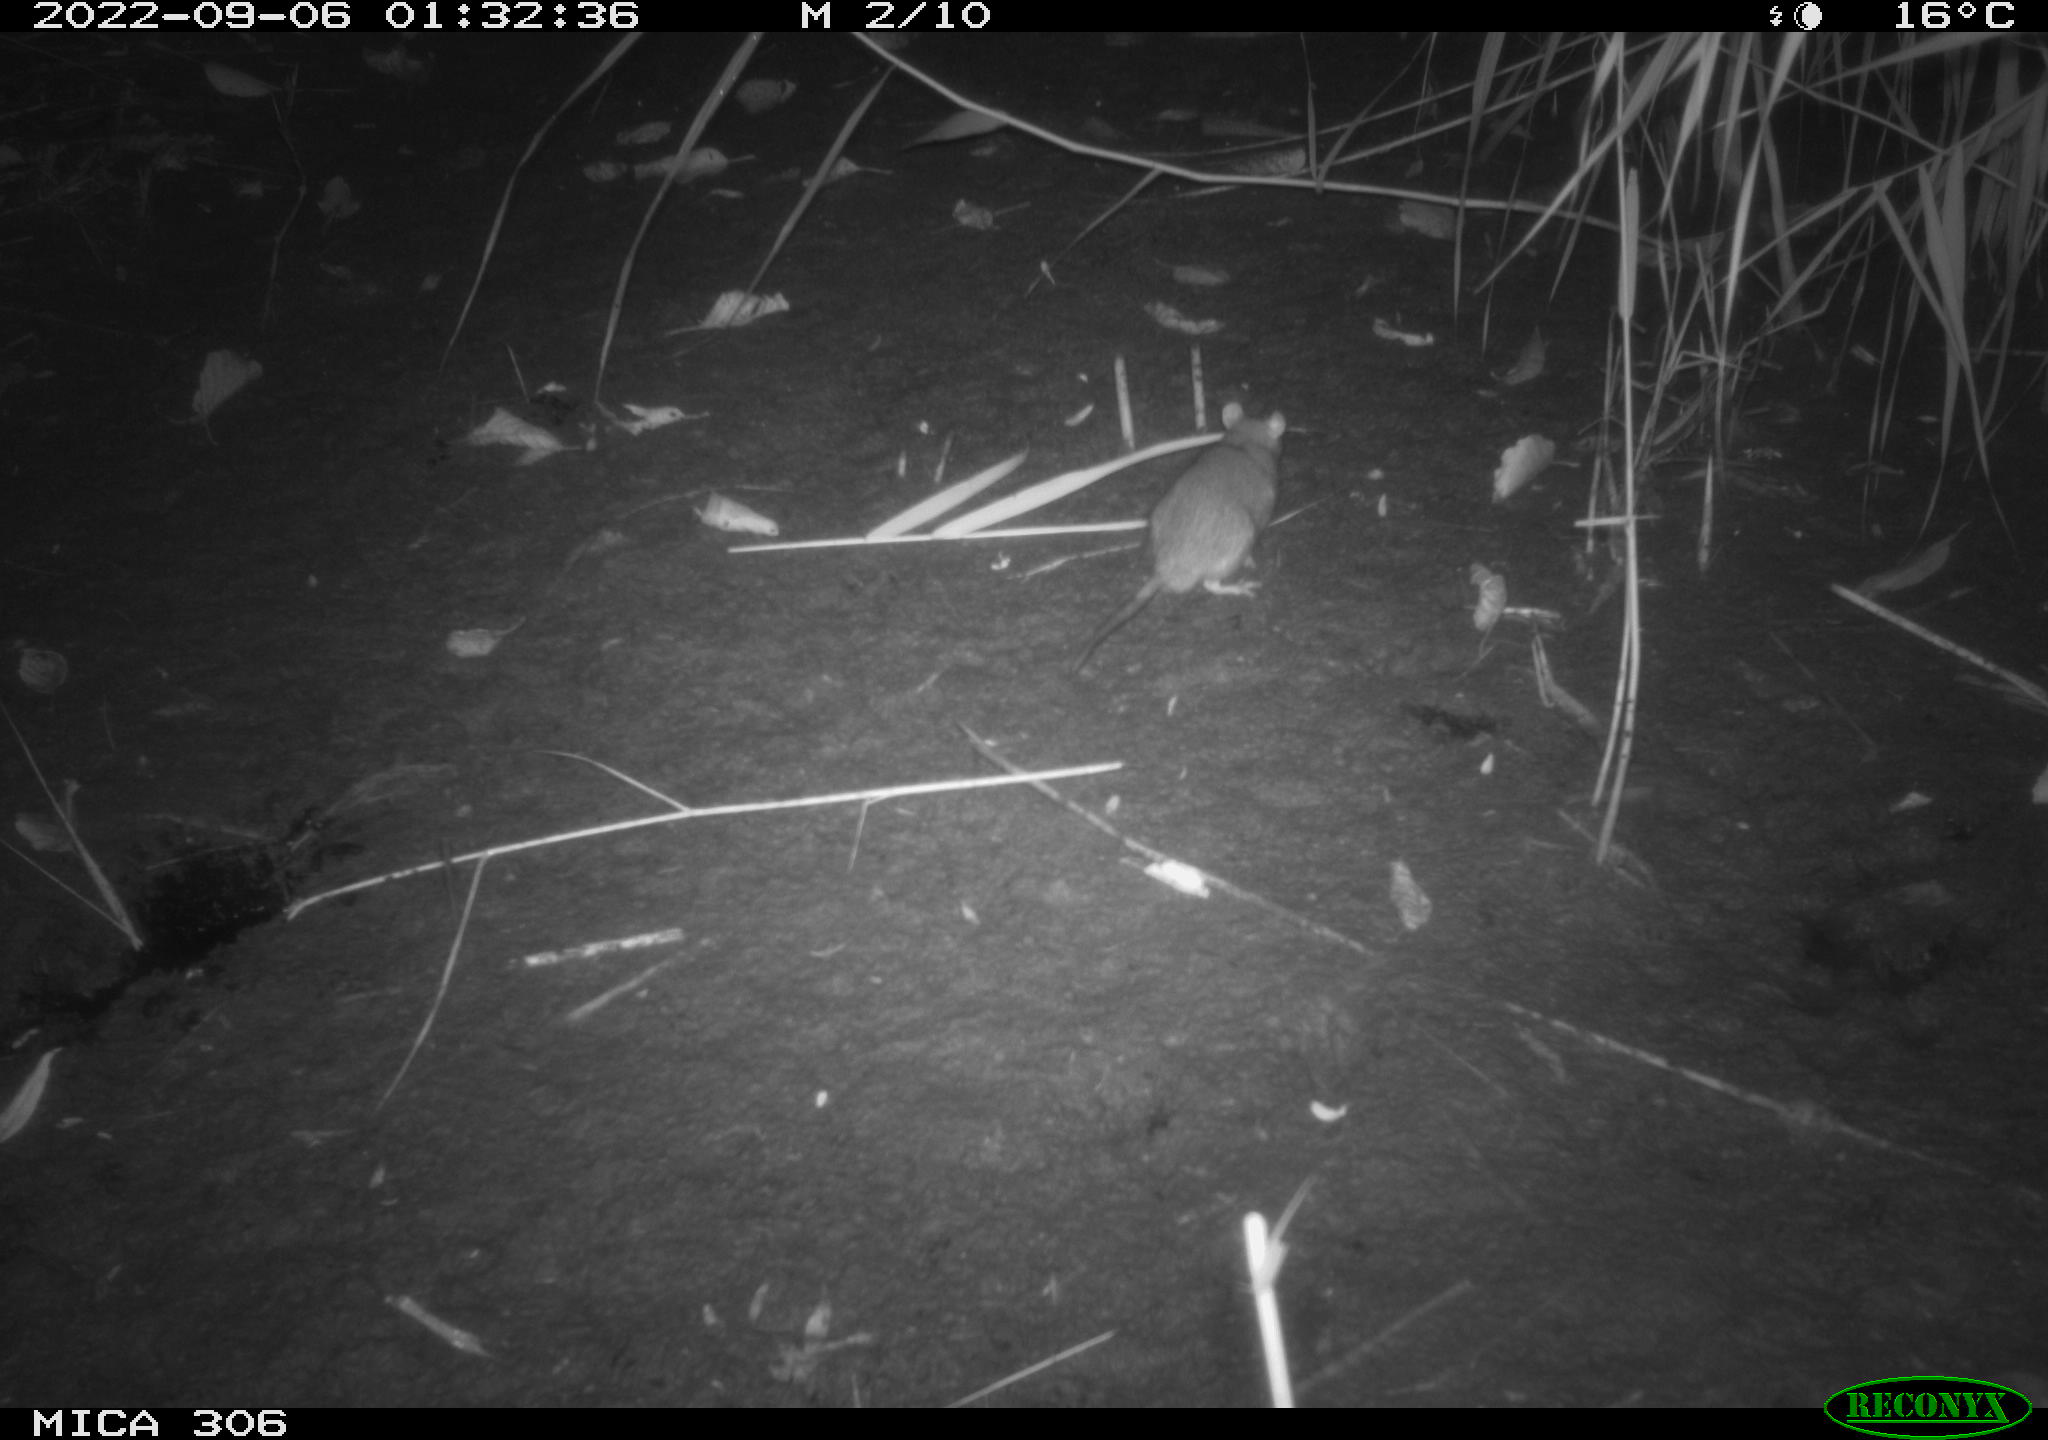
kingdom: Animalia
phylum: Chordata
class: Mammalia
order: Rodentia
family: Muridae
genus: Rattus
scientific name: Rattus norvegicus
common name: Brown rat
